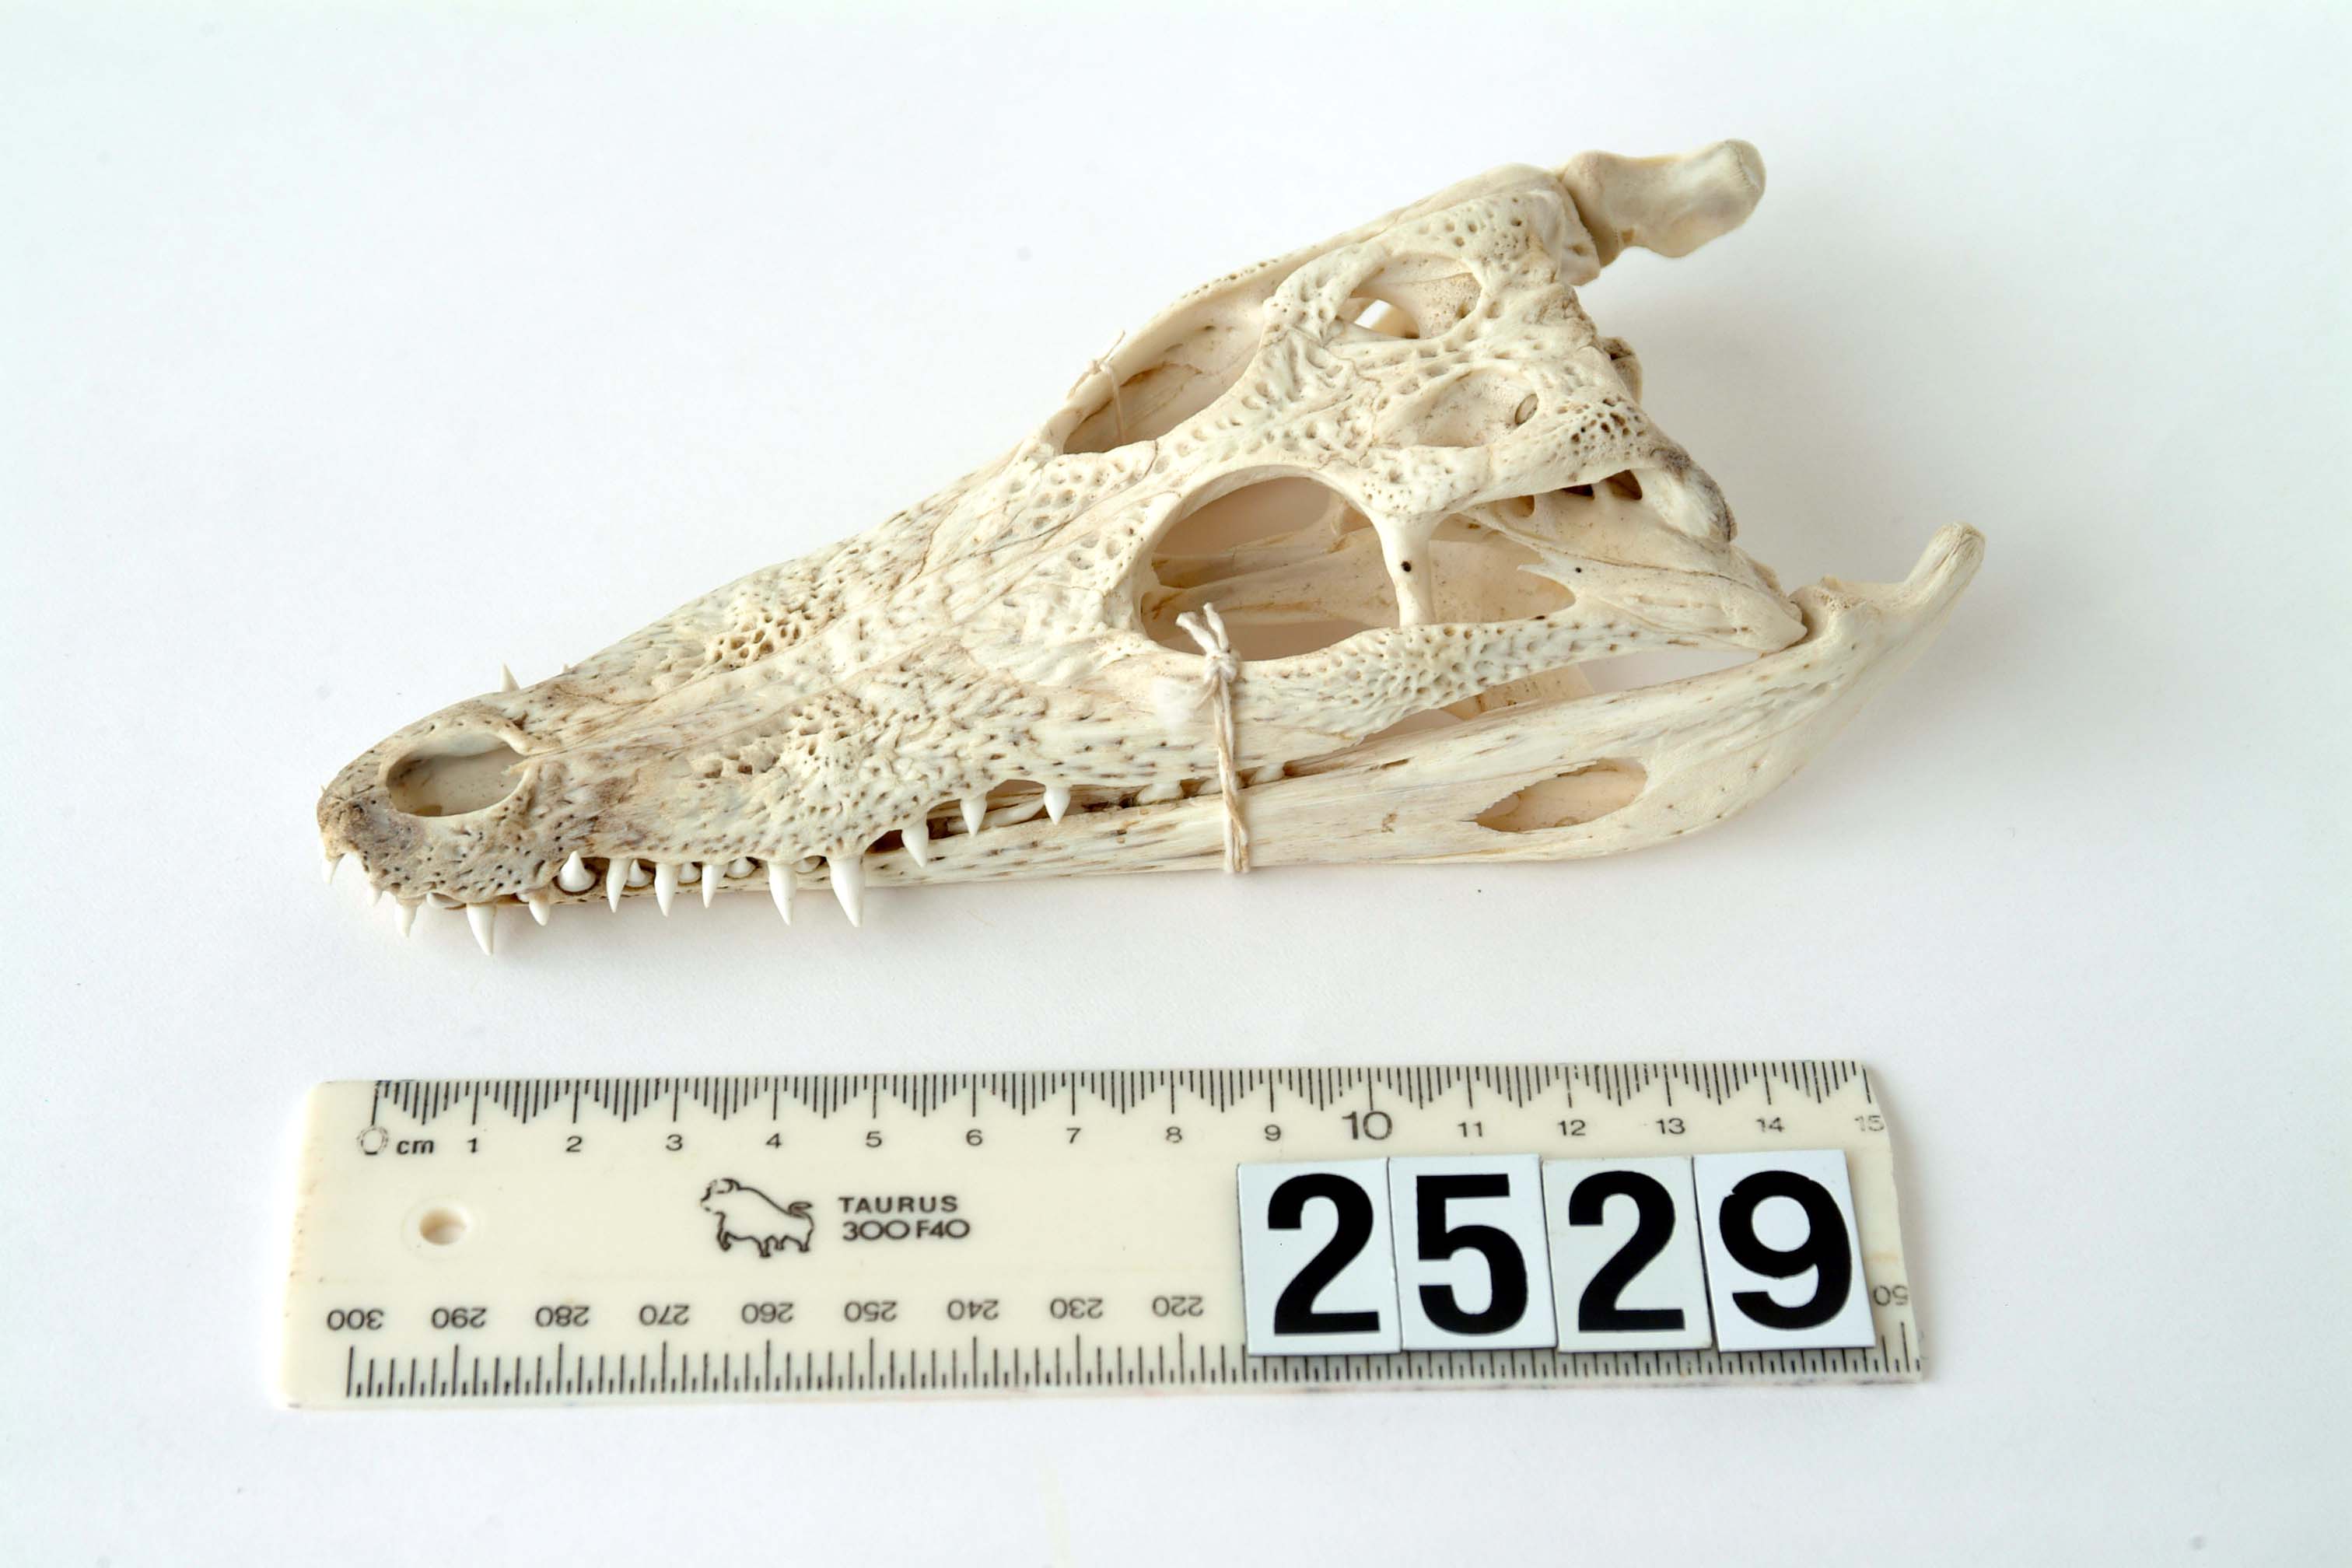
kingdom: Animalia
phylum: Chordata
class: Crocodylia
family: Crocodylidae
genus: Crocodylus
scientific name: Crocodylus
